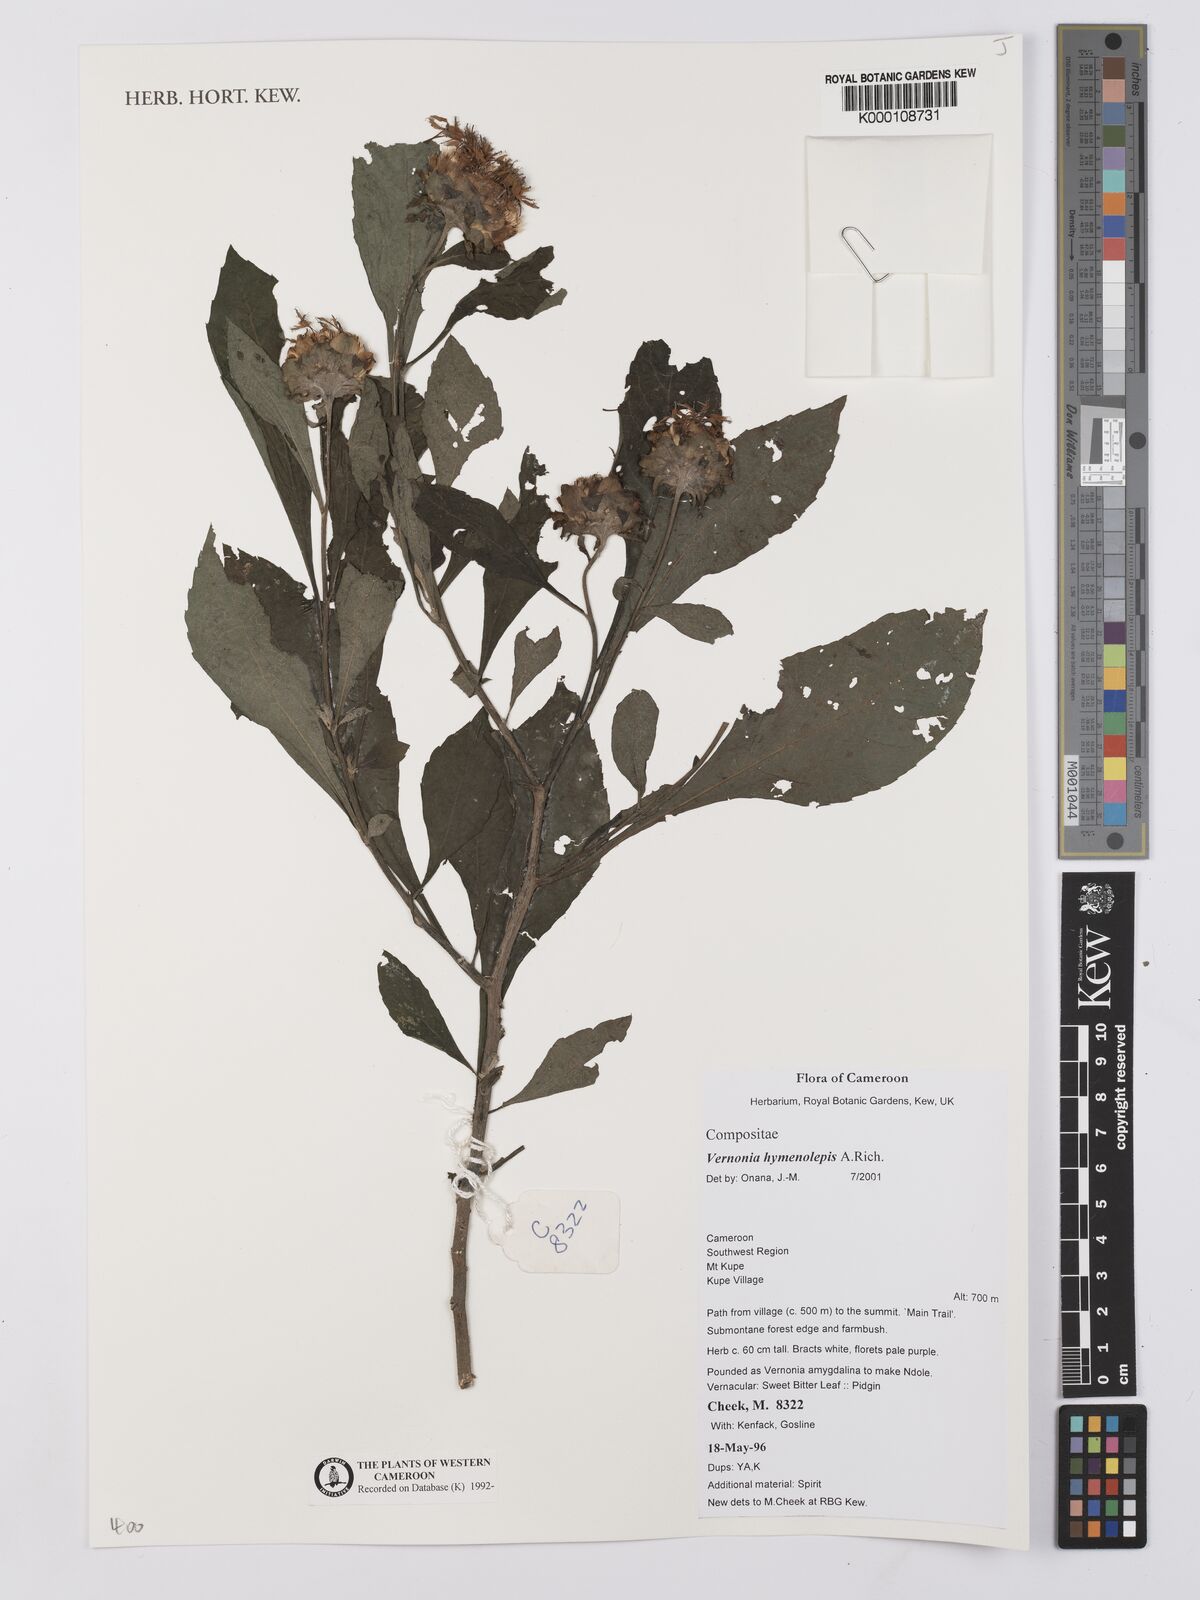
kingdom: Plantae
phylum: Tracheophyta
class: Magnoliopsida
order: Asterales
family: Asteraceae
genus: Baccharoides
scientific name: Baccharoides hymenolepis
